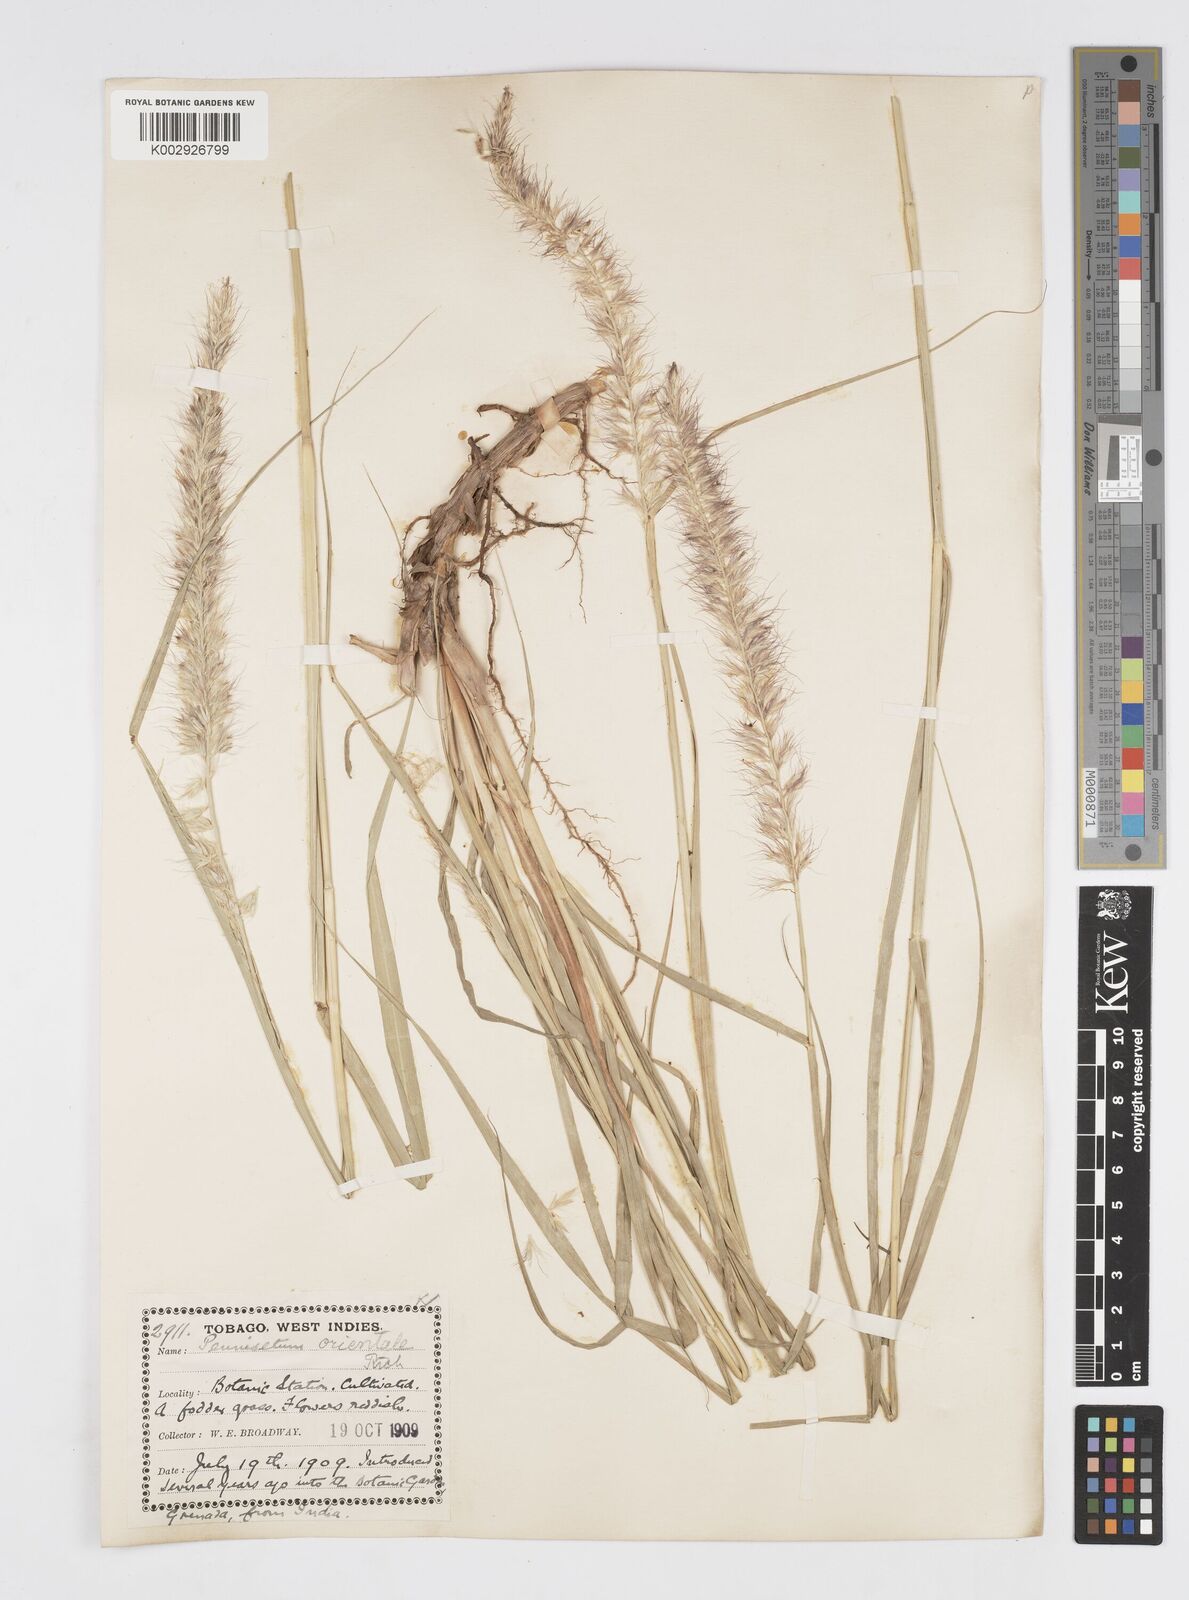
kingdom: Plantae
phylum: Tracheophyta
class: Liliopsida
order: Poales
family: Poaceae
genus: Cenchrus
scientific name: Cenchrus orientalis
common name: Oriental fountain grass
